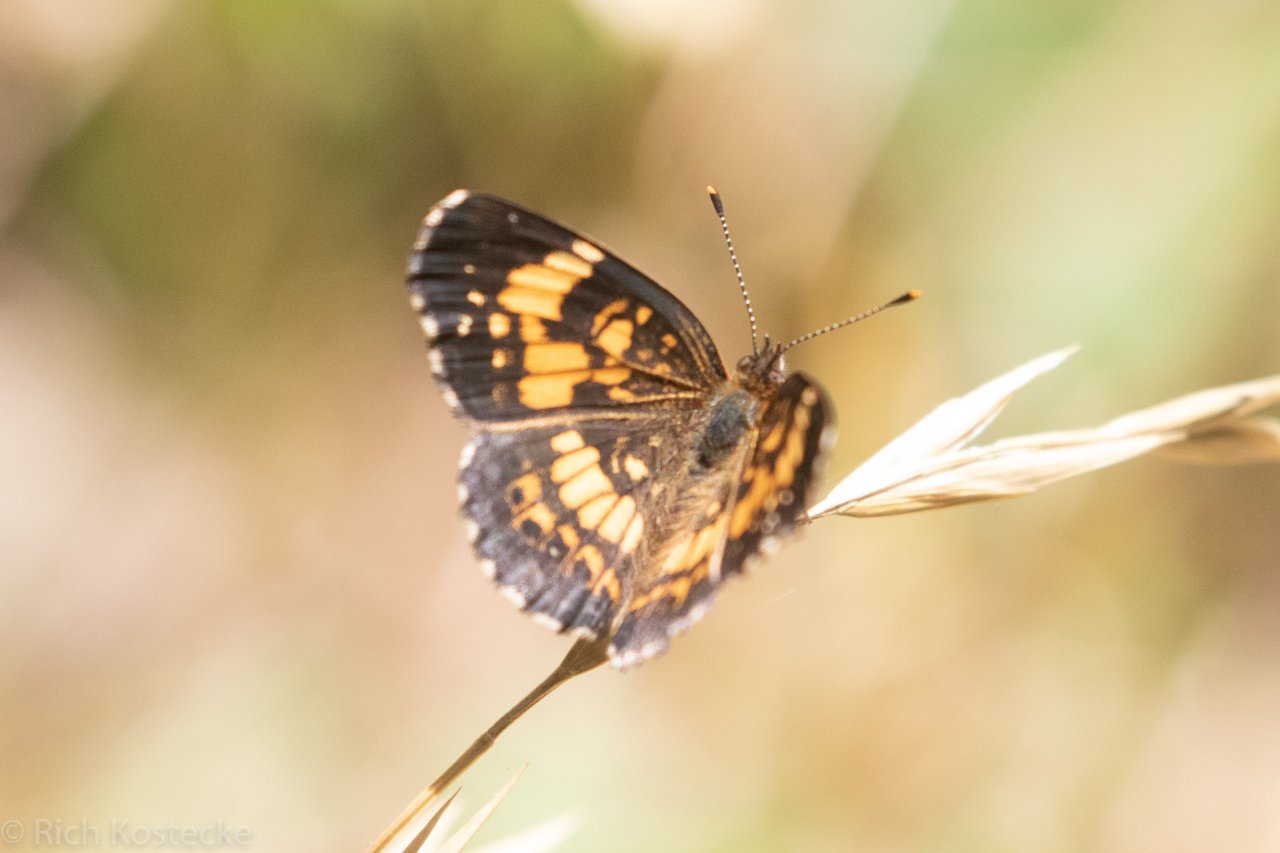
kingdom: Animalia
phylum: Arthropoda
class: Insecta
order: Lepidoptera
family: Nymphalidae
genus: Chlosyne
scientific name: Chlosyne nycteis
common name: Silvery Checkerspot
